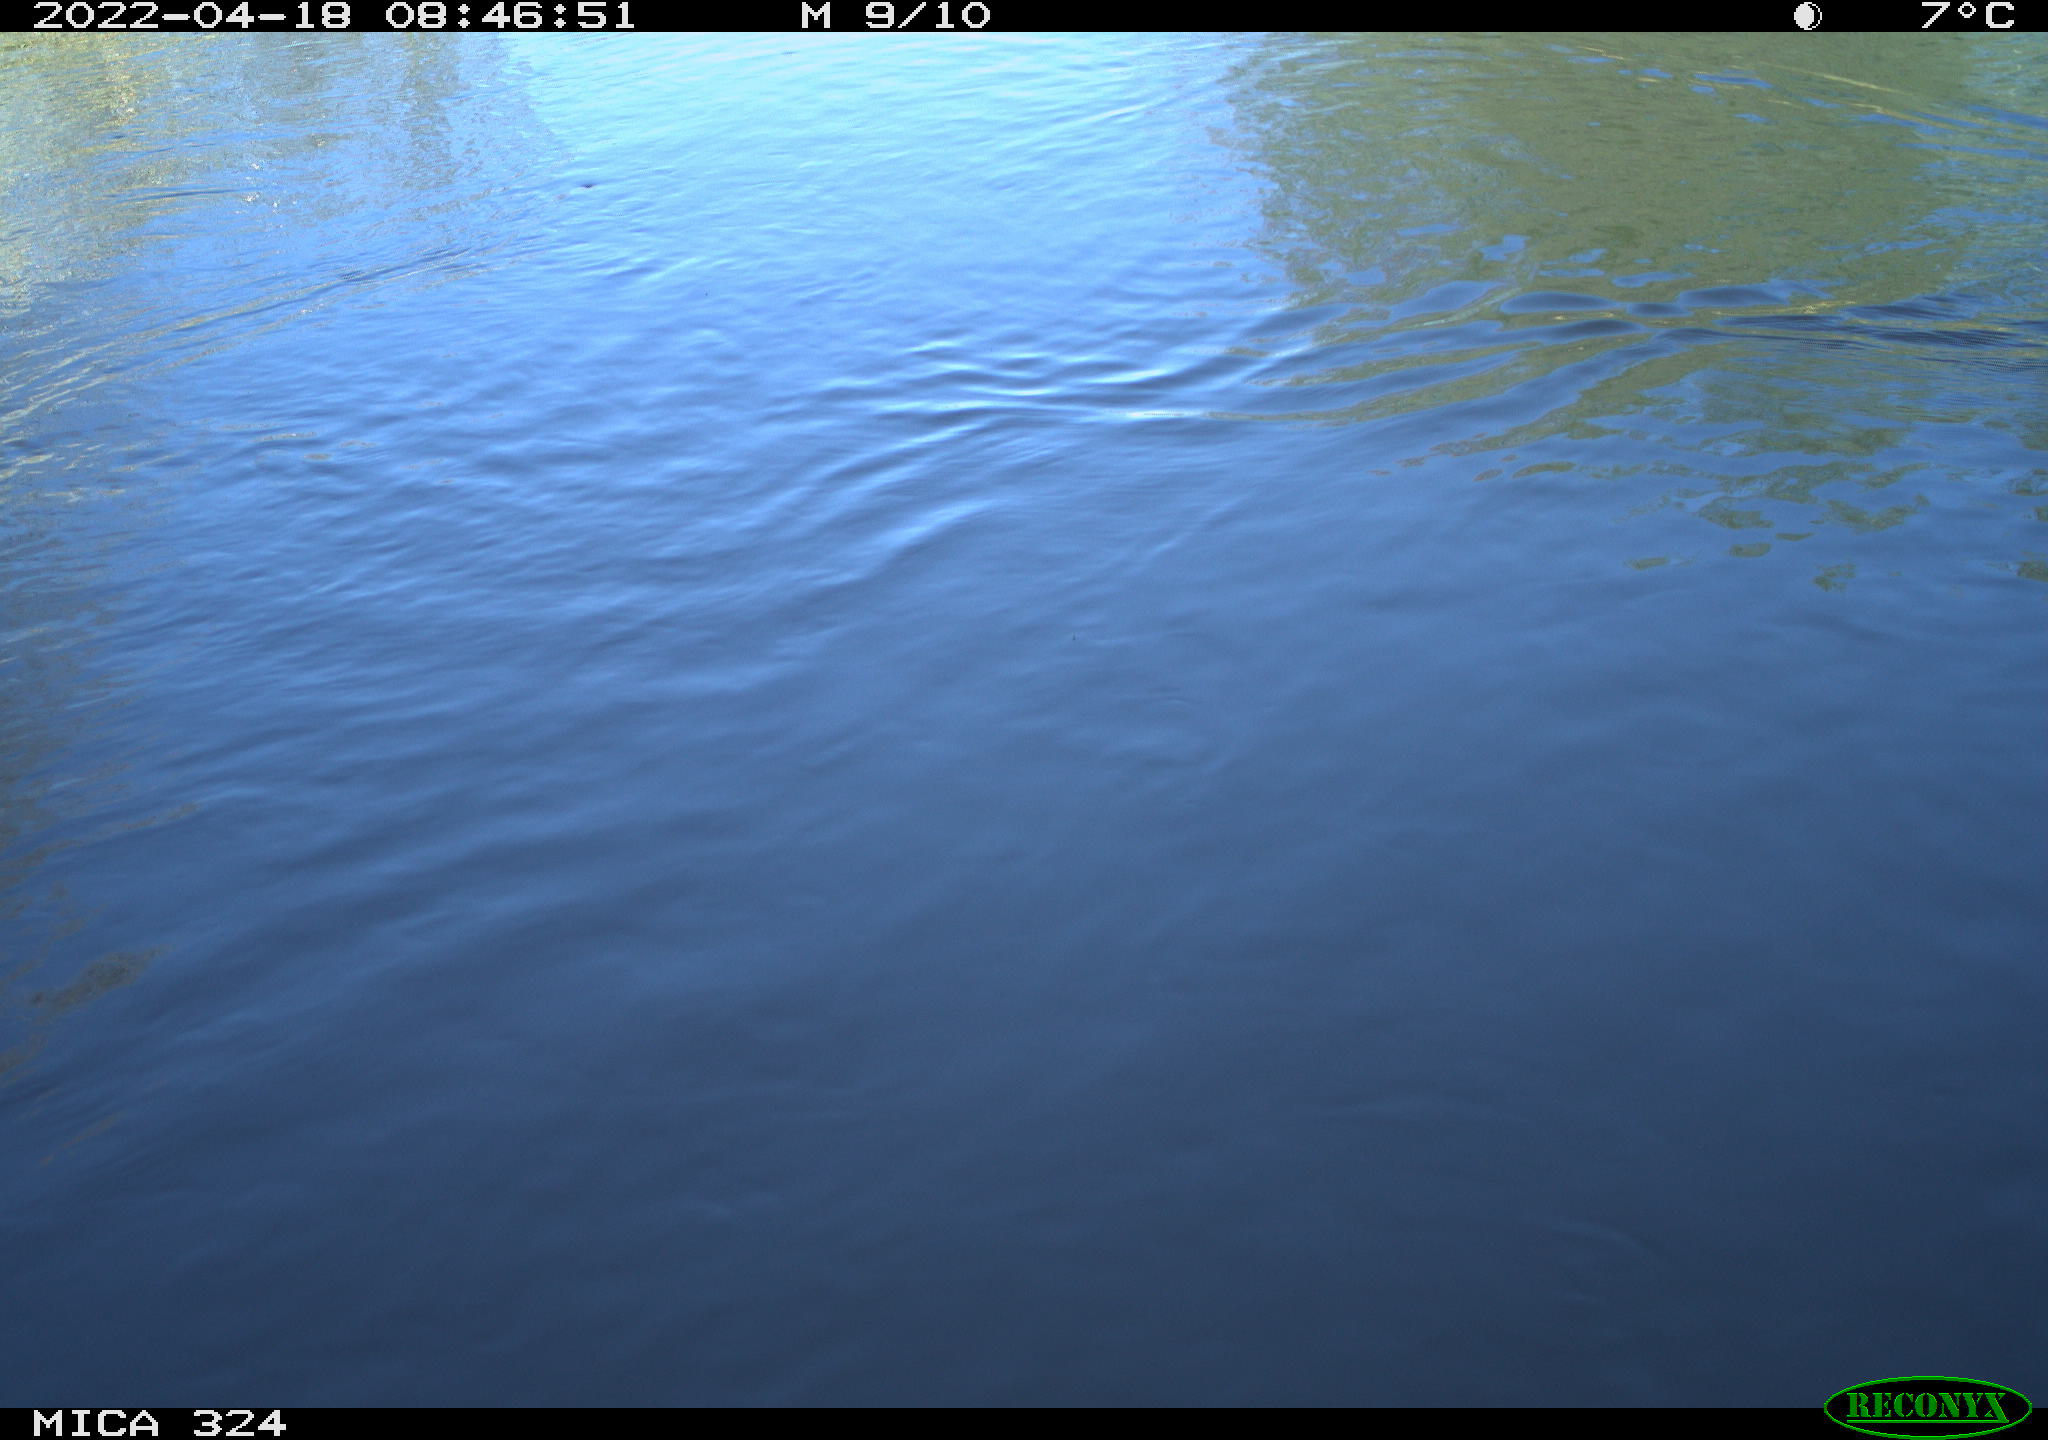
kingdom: Animalia
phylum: Chordata
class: Aves
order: Gruiformes
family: Rallidae
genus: Gallinula
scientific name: Gallinula chloropus
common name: Common moorhen
